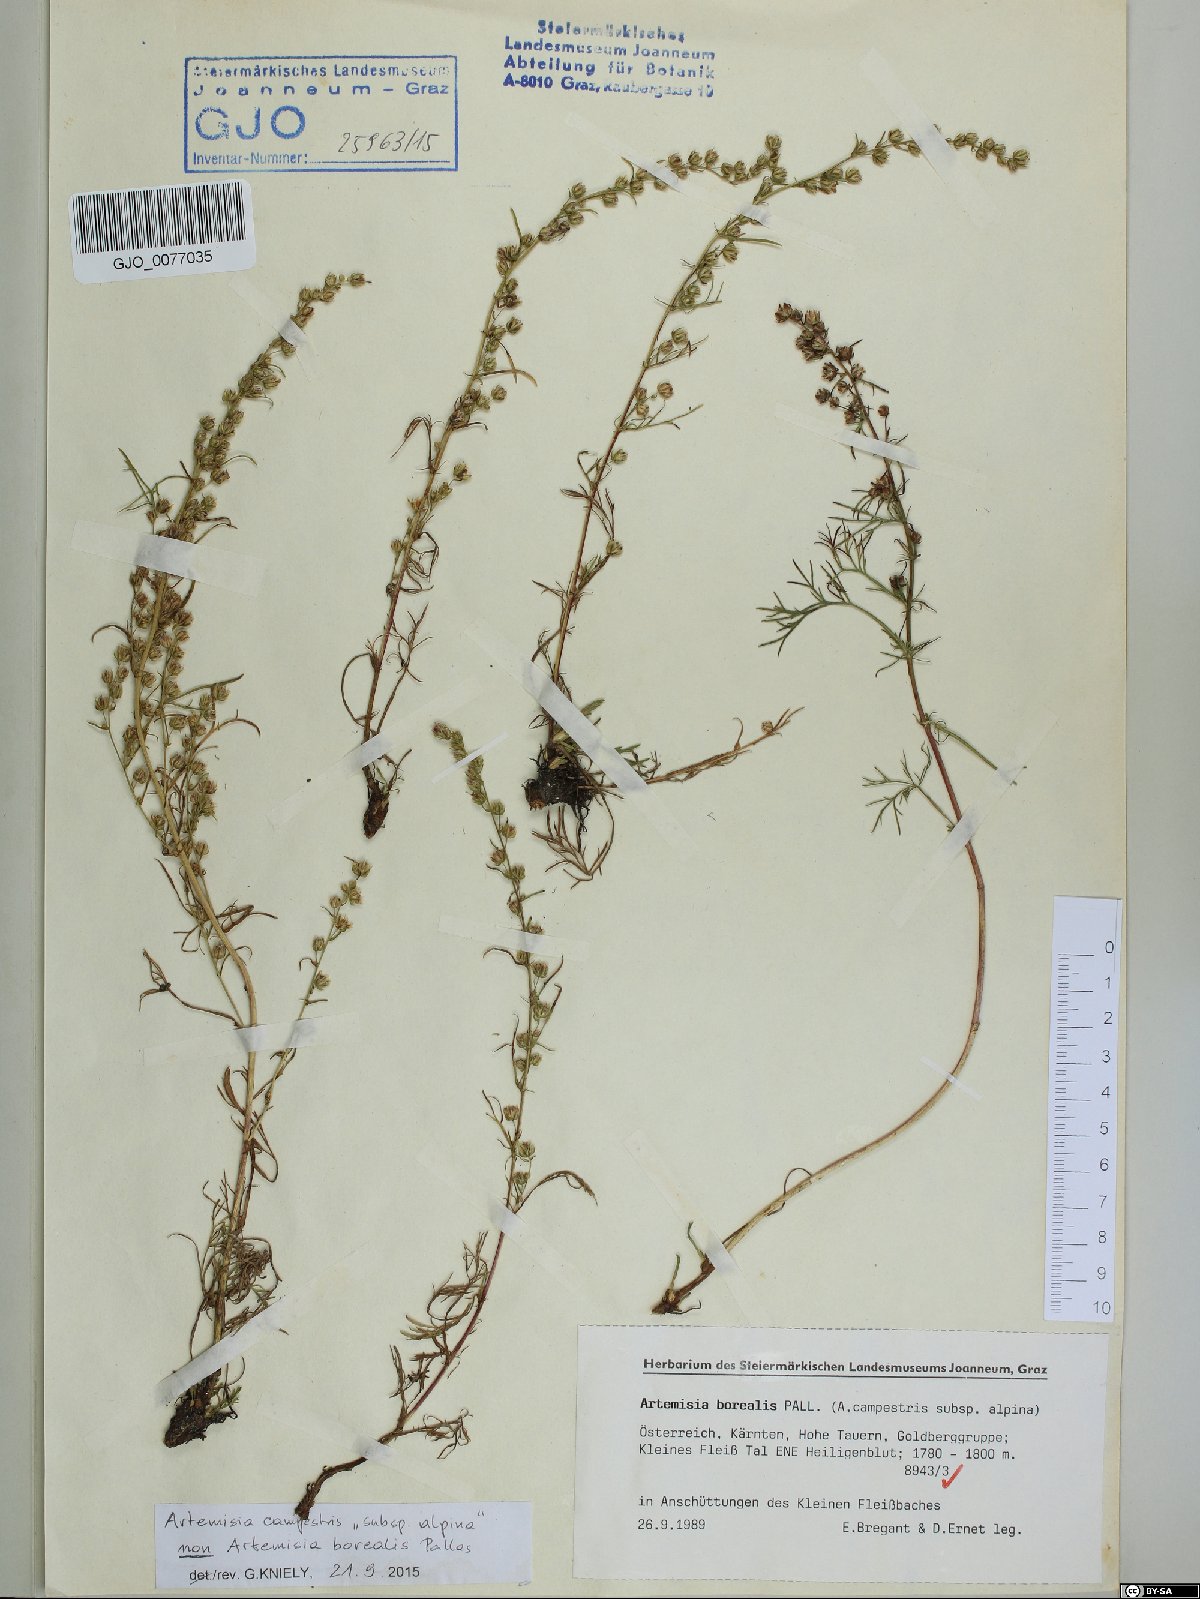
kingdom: Plantae
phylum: Tracheophyta
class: Magnoliopsida
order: Asterales
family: Asteraceae
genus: Artemisia
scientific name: Artemisia campestris
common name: Field wormwood
